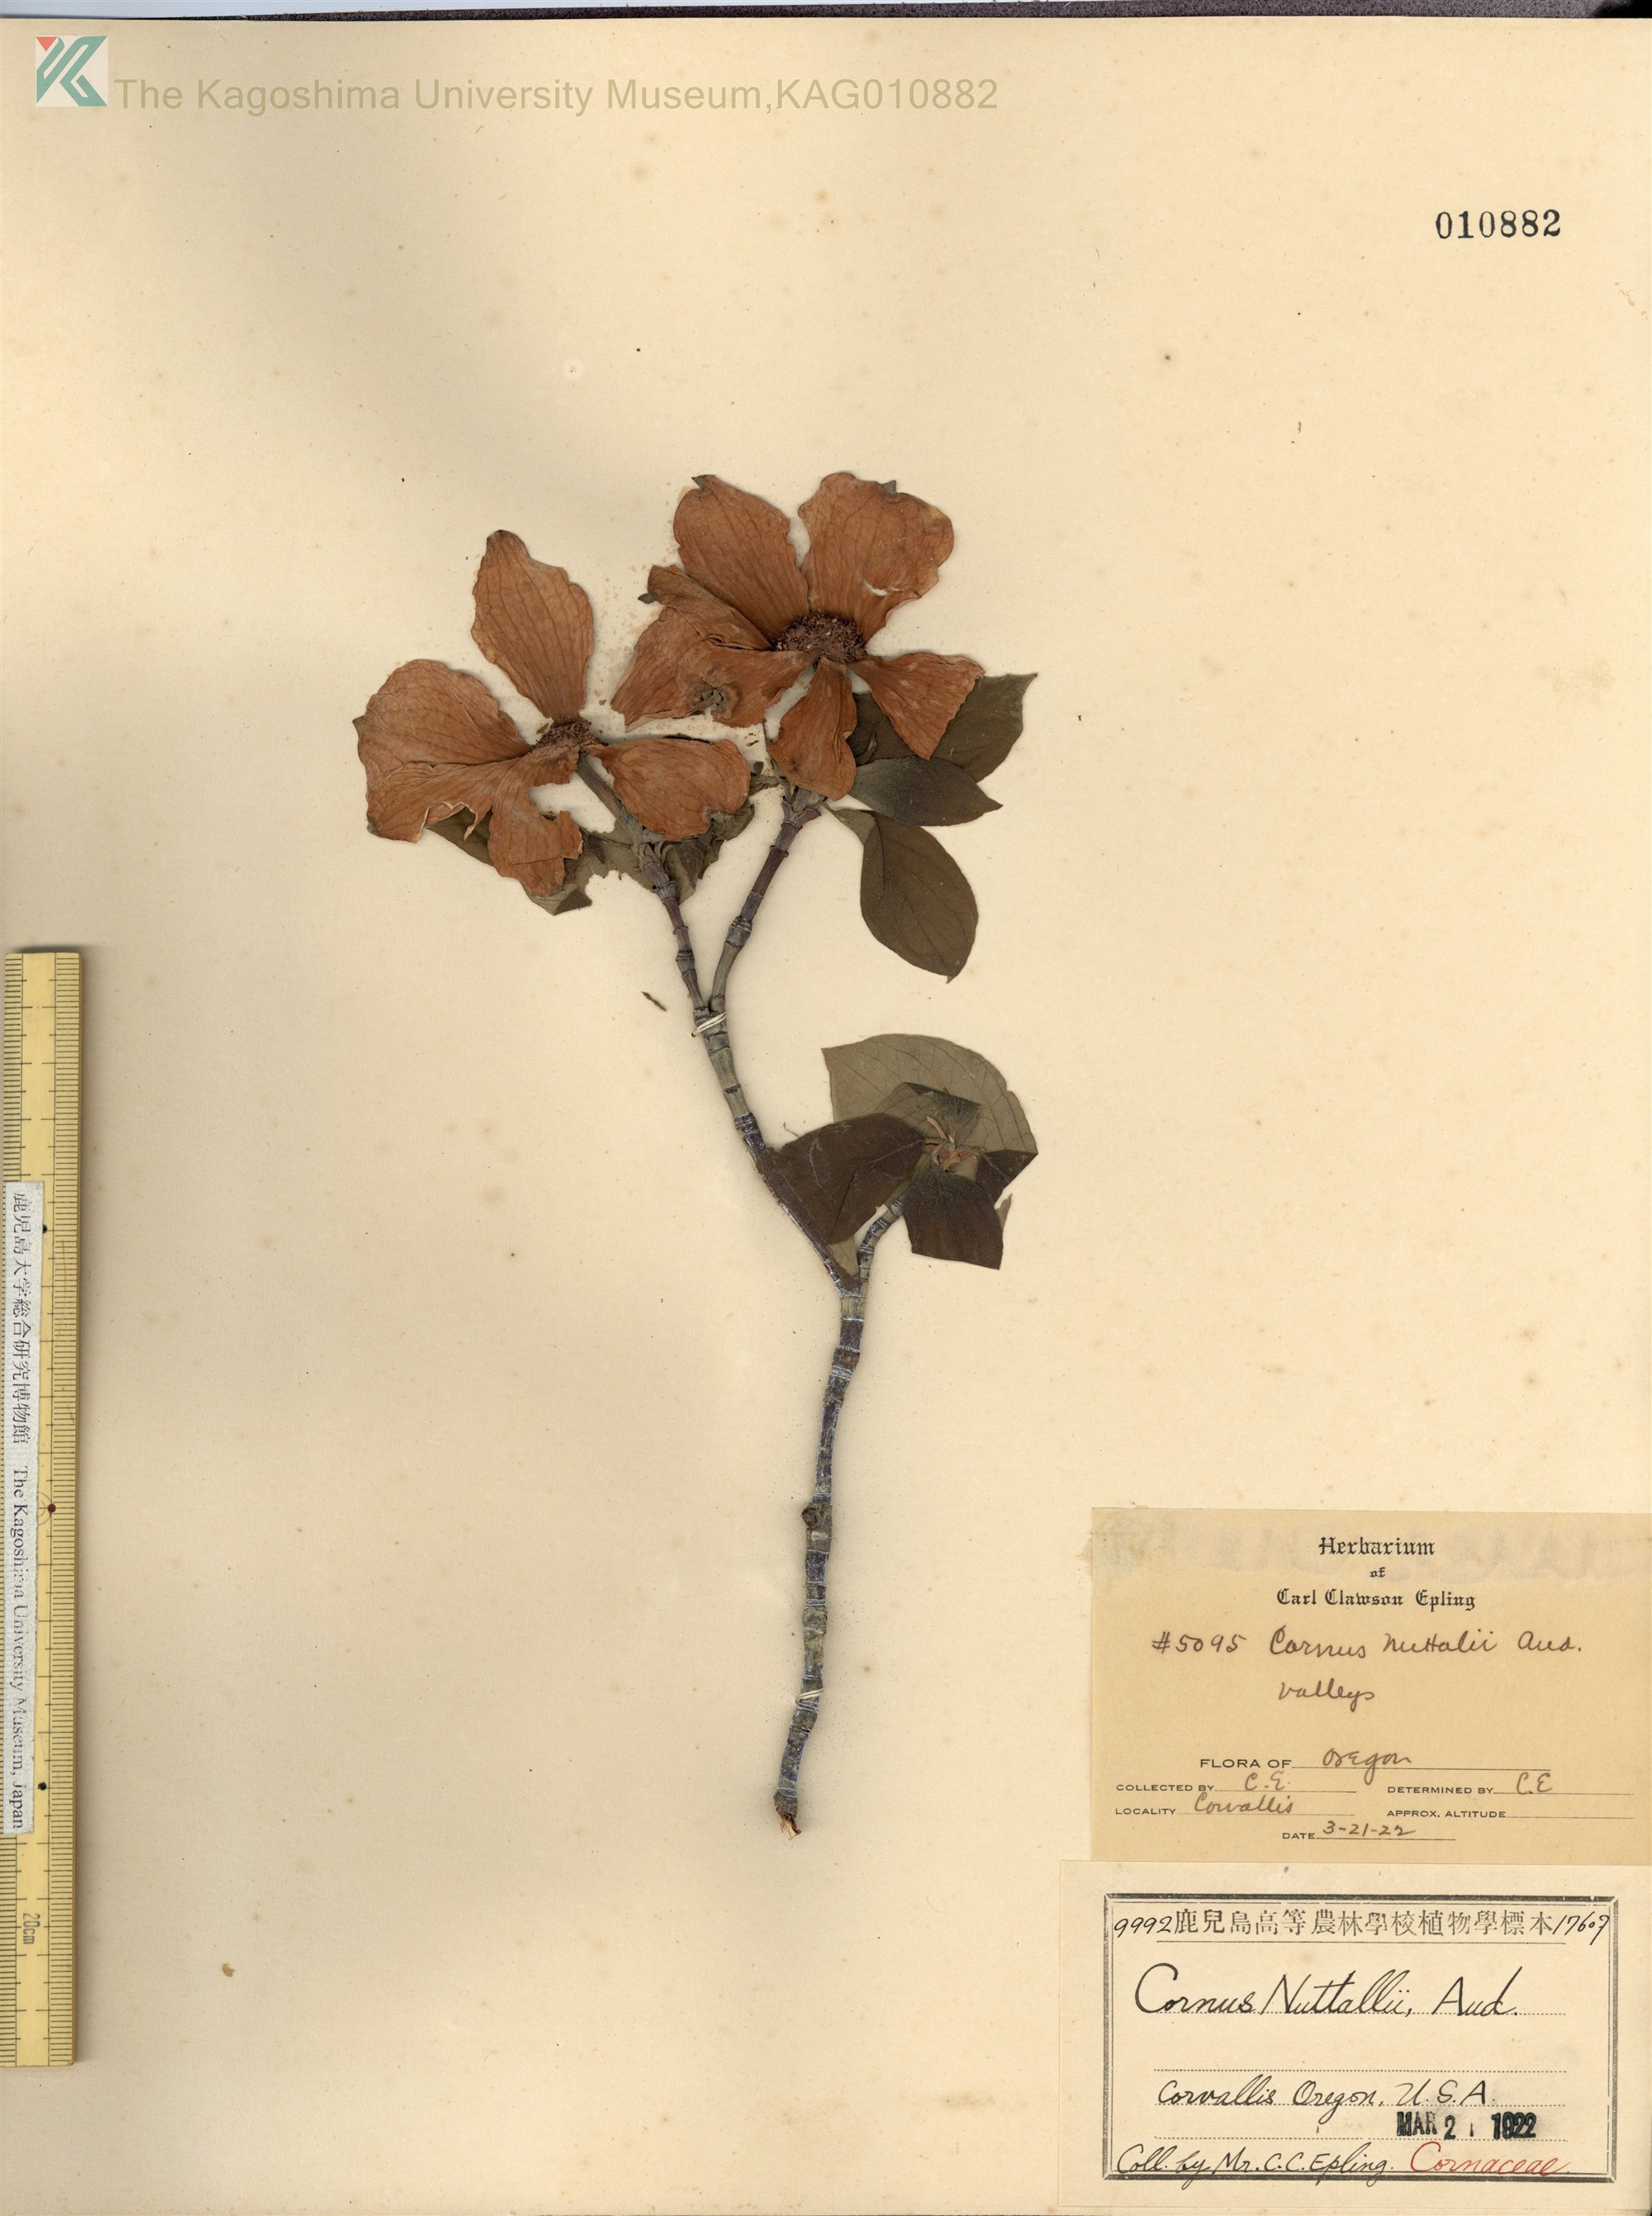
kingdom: Plantae
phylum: Tracheophyta
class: Magnoliopsida
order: Cornales
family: Cornaceae
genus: Cornus
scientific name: Cornus nuttallii
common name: Pacific dogwood
